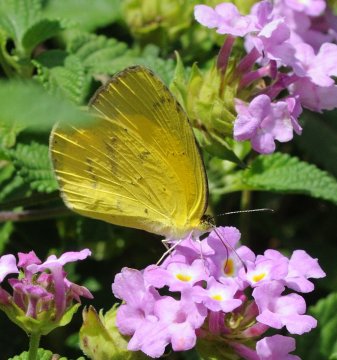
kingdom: Animalia
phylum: Arthropoda
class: Insecta
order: Lepidoptera
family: Pieridae
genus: Eurema
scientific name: Eurema hecabe
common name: Common Grass Yellow
